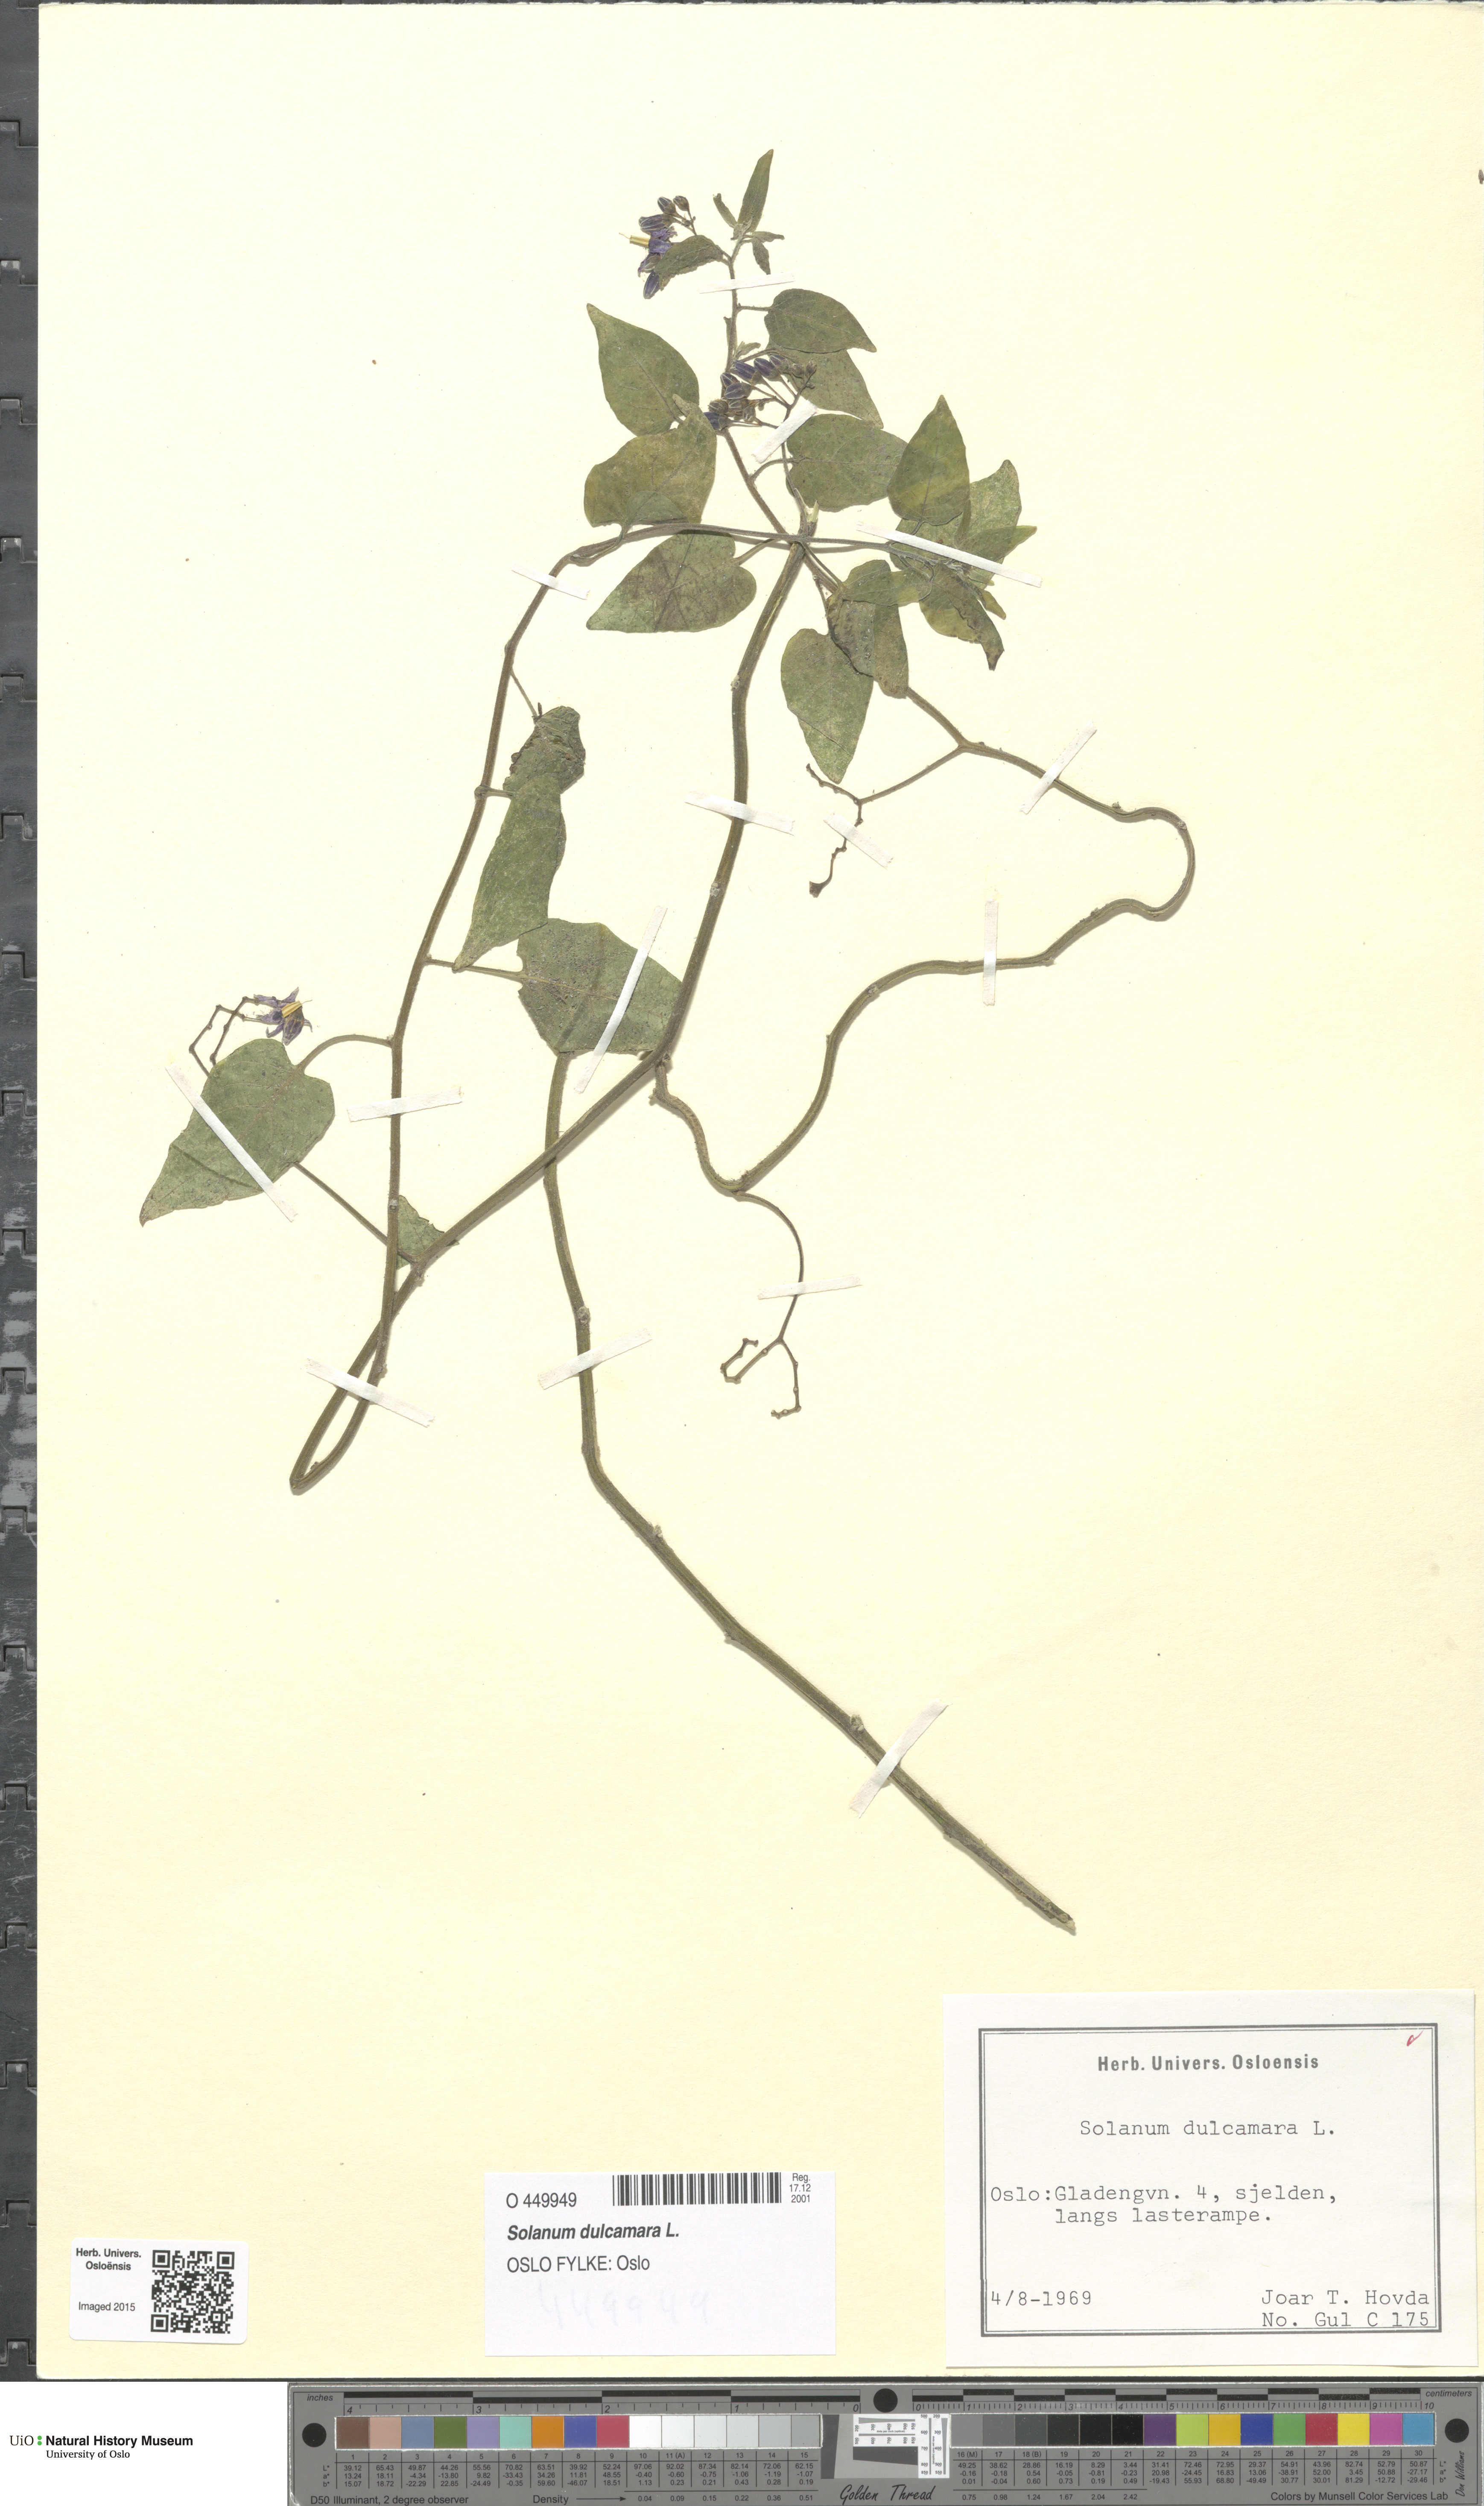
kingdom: Plantae
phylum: Tracheophyta
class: Magnoliopsida
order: Solanales
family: Solanaceae
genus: Solanum
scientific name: Solanum dulcamara
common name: Climbing nightshade
